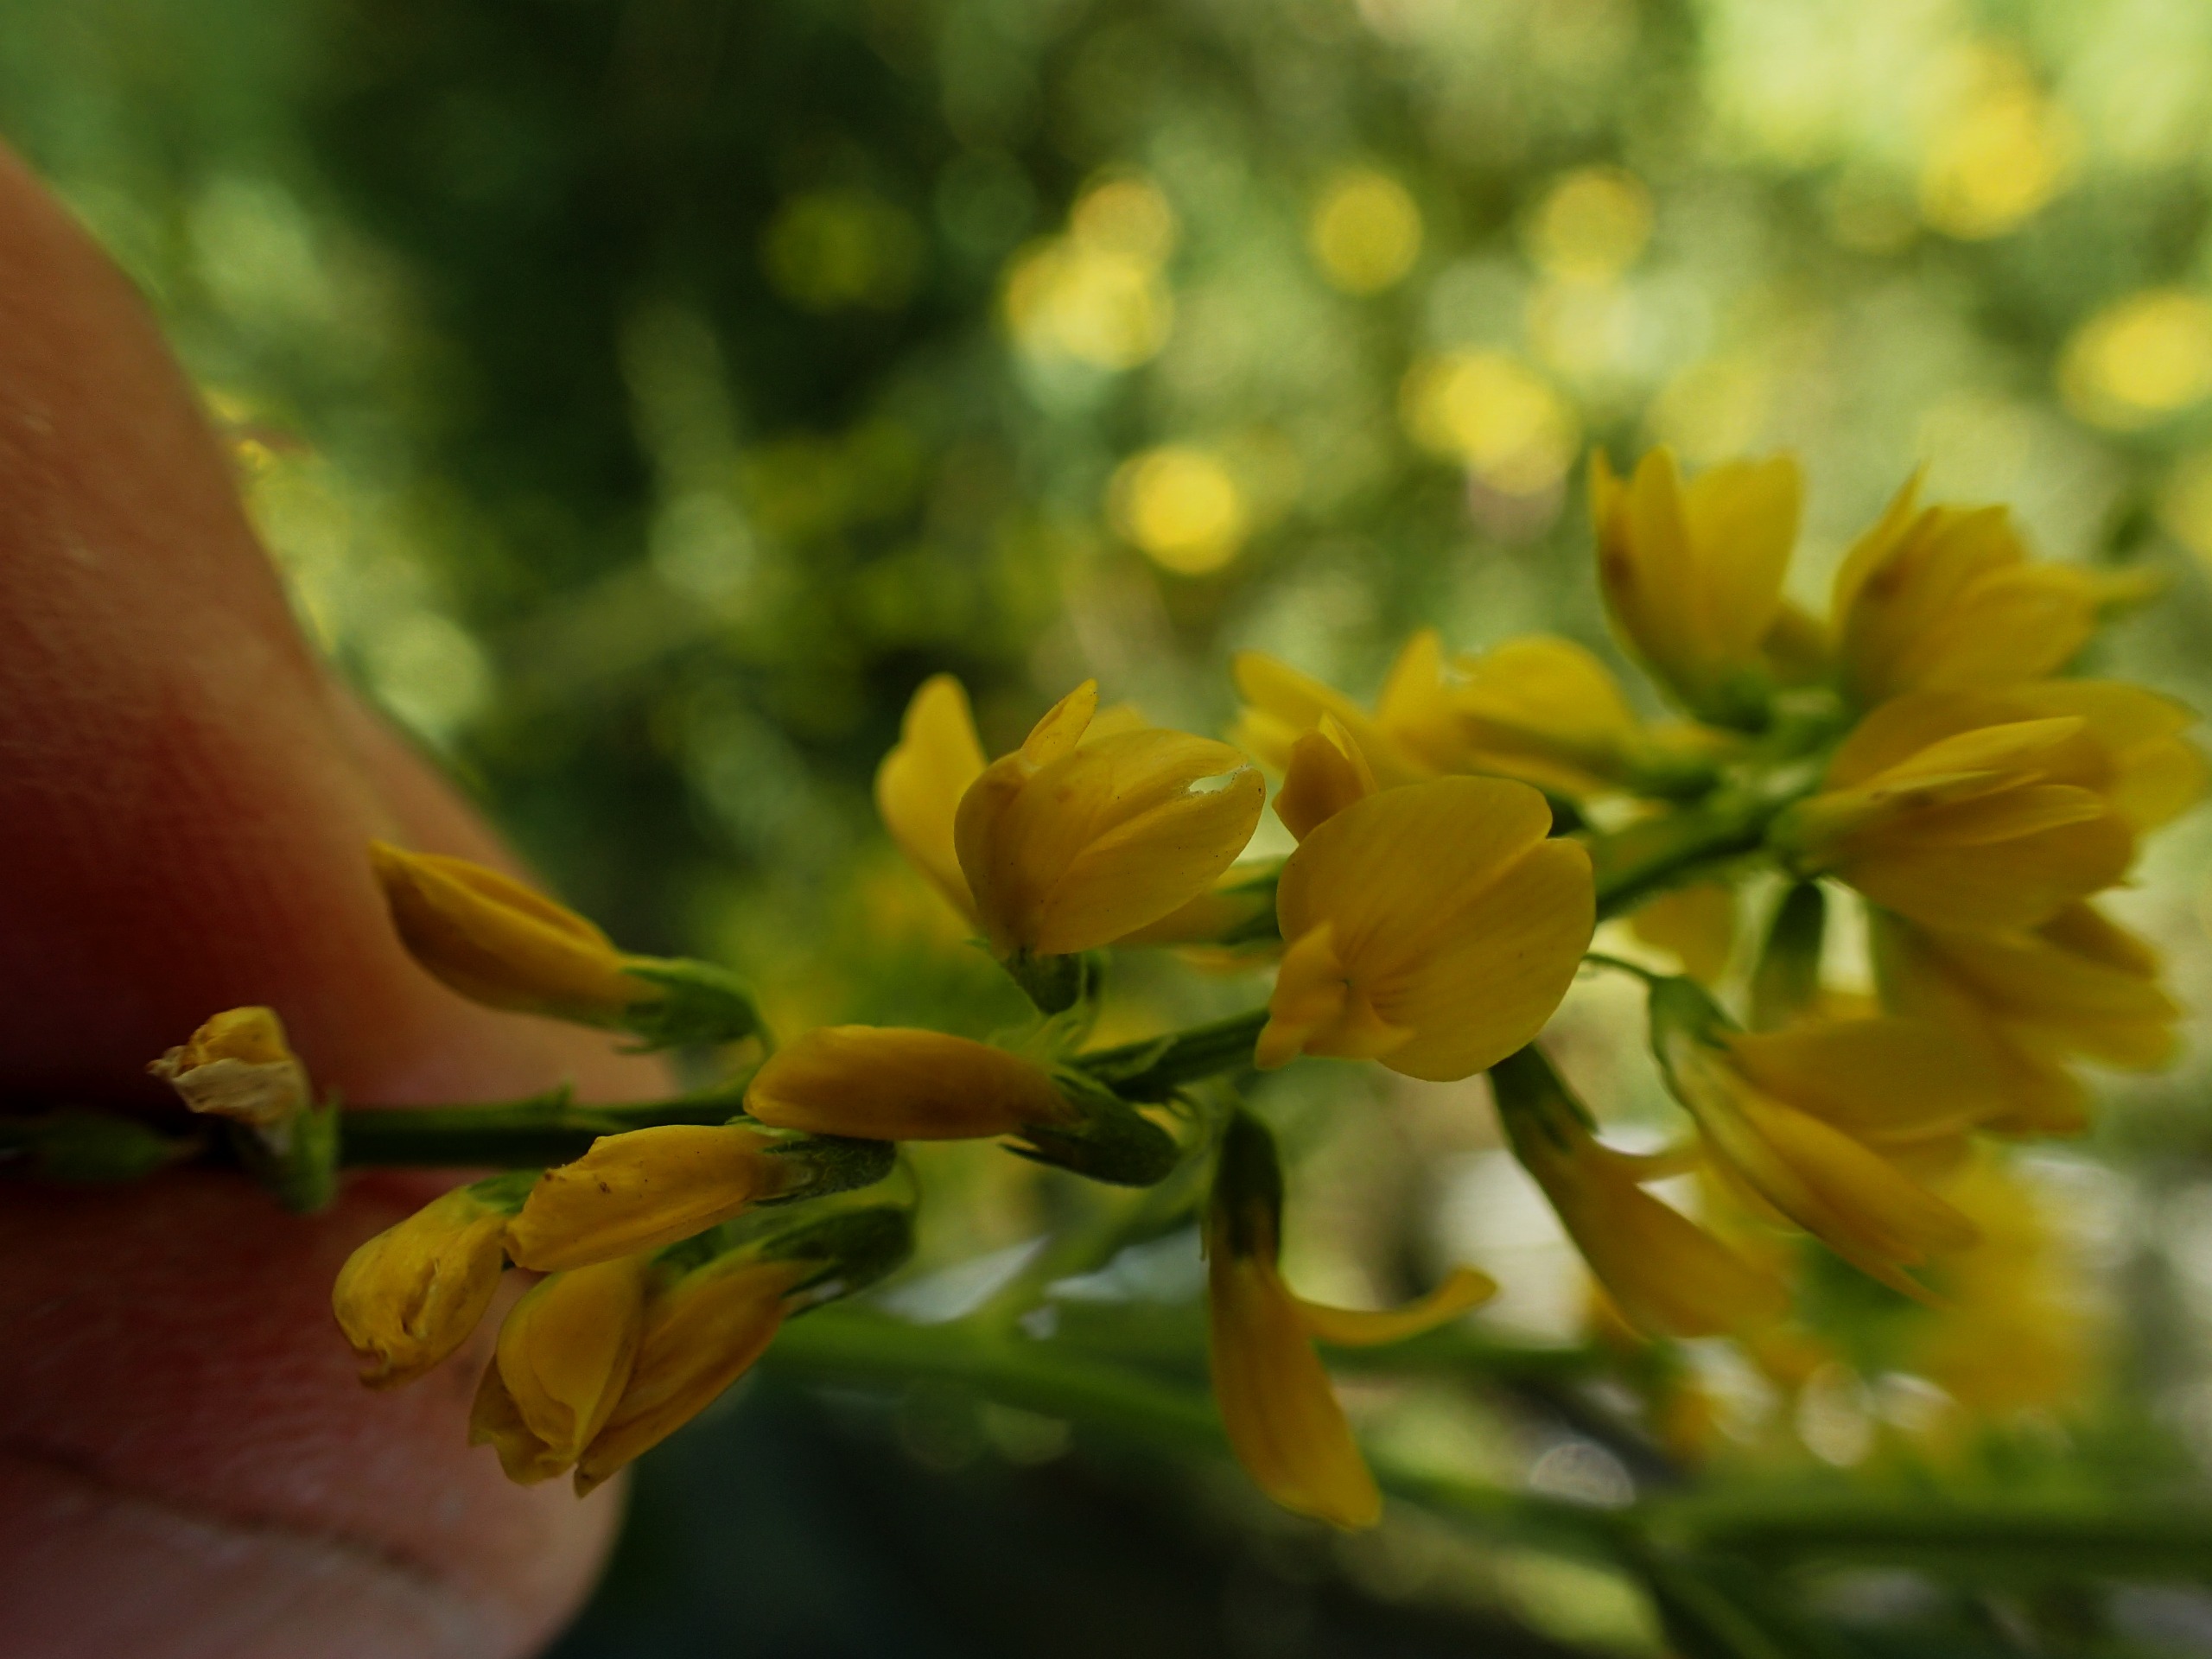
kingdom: Plantae
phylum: Tracheophyta
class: Magnoliopsida
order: Fabales
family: Fabaceae
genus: Melilotus
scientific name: Melilotus officinalis
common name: Mark-stenkløver
